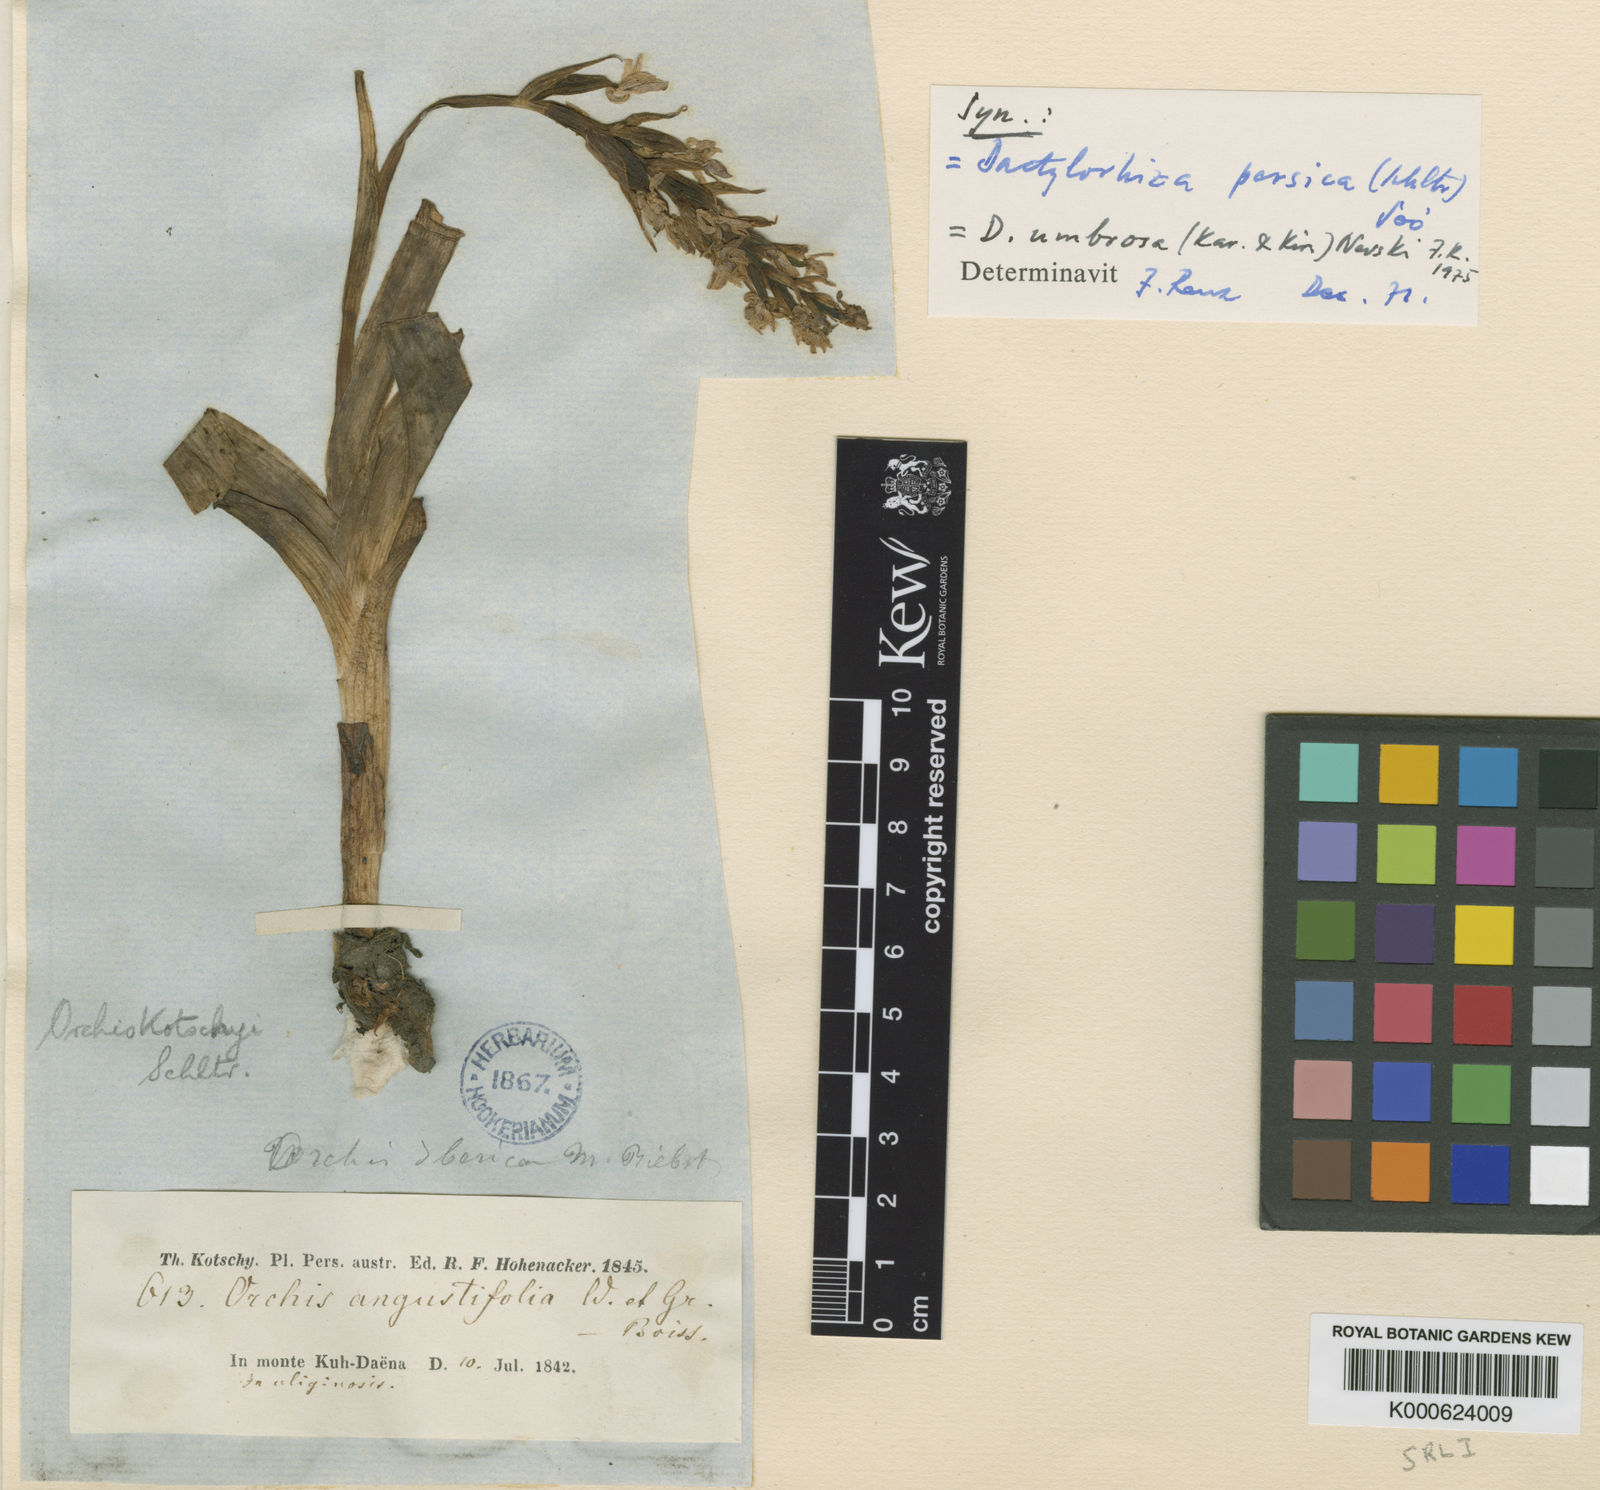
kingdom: Plantae
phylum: Tracheophyta
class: Liliopsida
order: Asparagales
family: Orchidaceae
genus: Dactylorhiza
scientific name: Dactylorhiza
